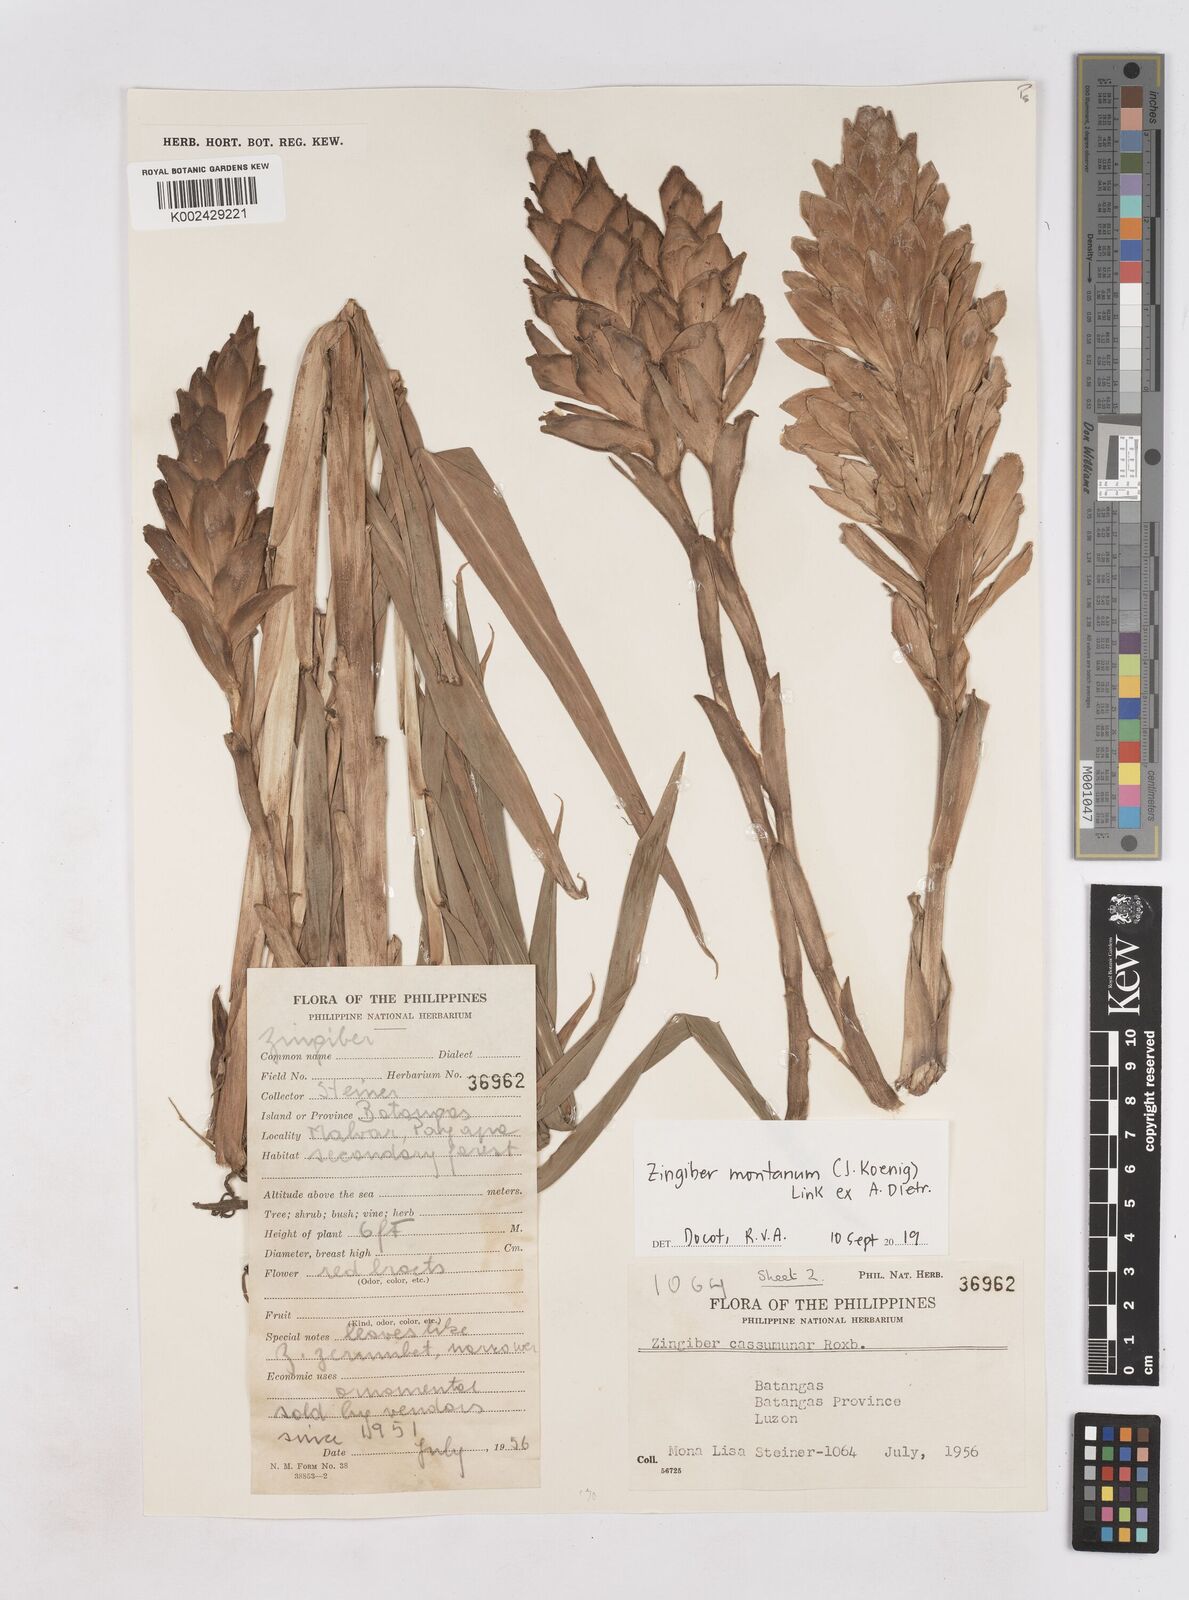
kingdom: Plantae
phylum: Tracheophyta
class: Liliopsida
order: Zingiberales
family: Zingiberaceae
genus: Zingiber
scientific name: Zingiber montanum
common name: Bengal ginger
